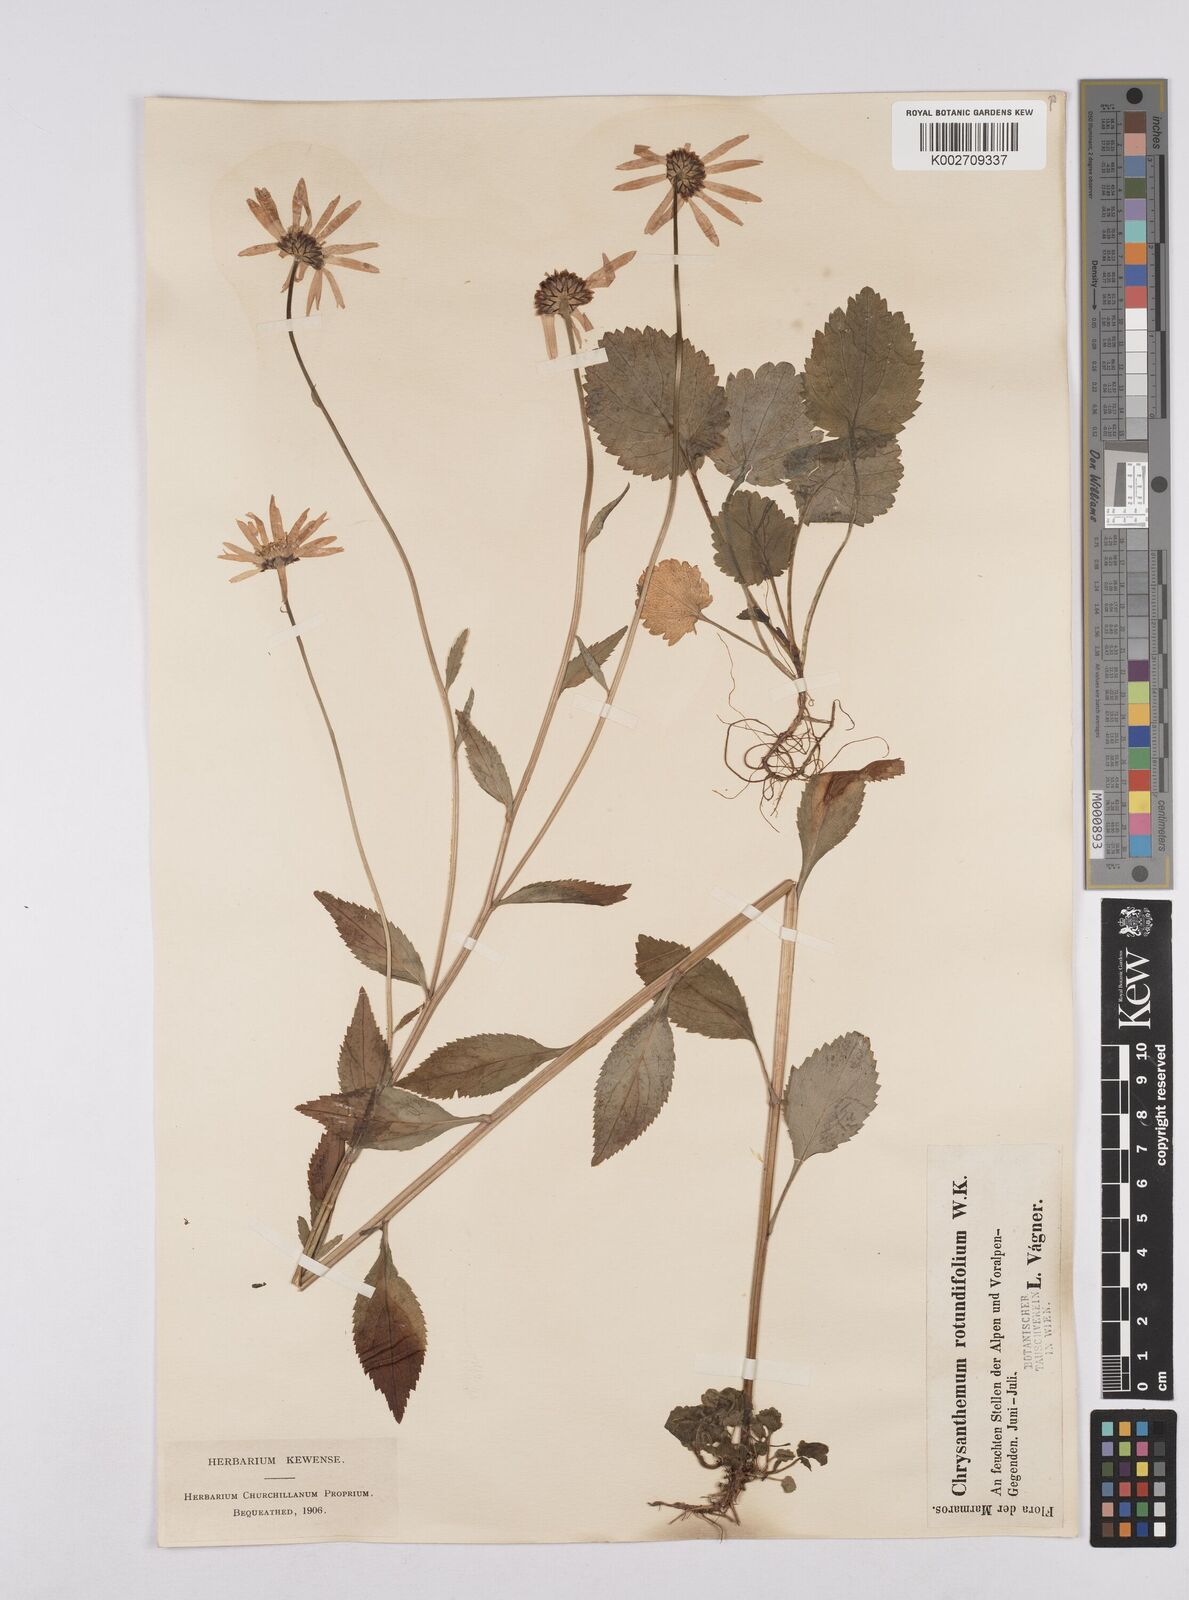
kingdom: Plantae
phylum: Tracheophyta
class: Magnoliopsida
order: Asterales
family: Asteraceae
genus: Leucanthemum
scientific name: Leucanthemum rotundifolium
